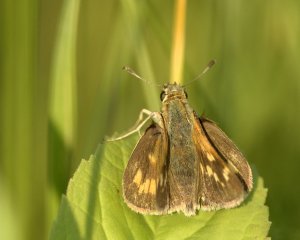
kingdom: Animalia
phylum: Arthropoda
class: Insecta
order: Lepidoptera
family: Hesperiidae
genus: Polites
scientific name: Polites
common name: Long Dash Skipper
